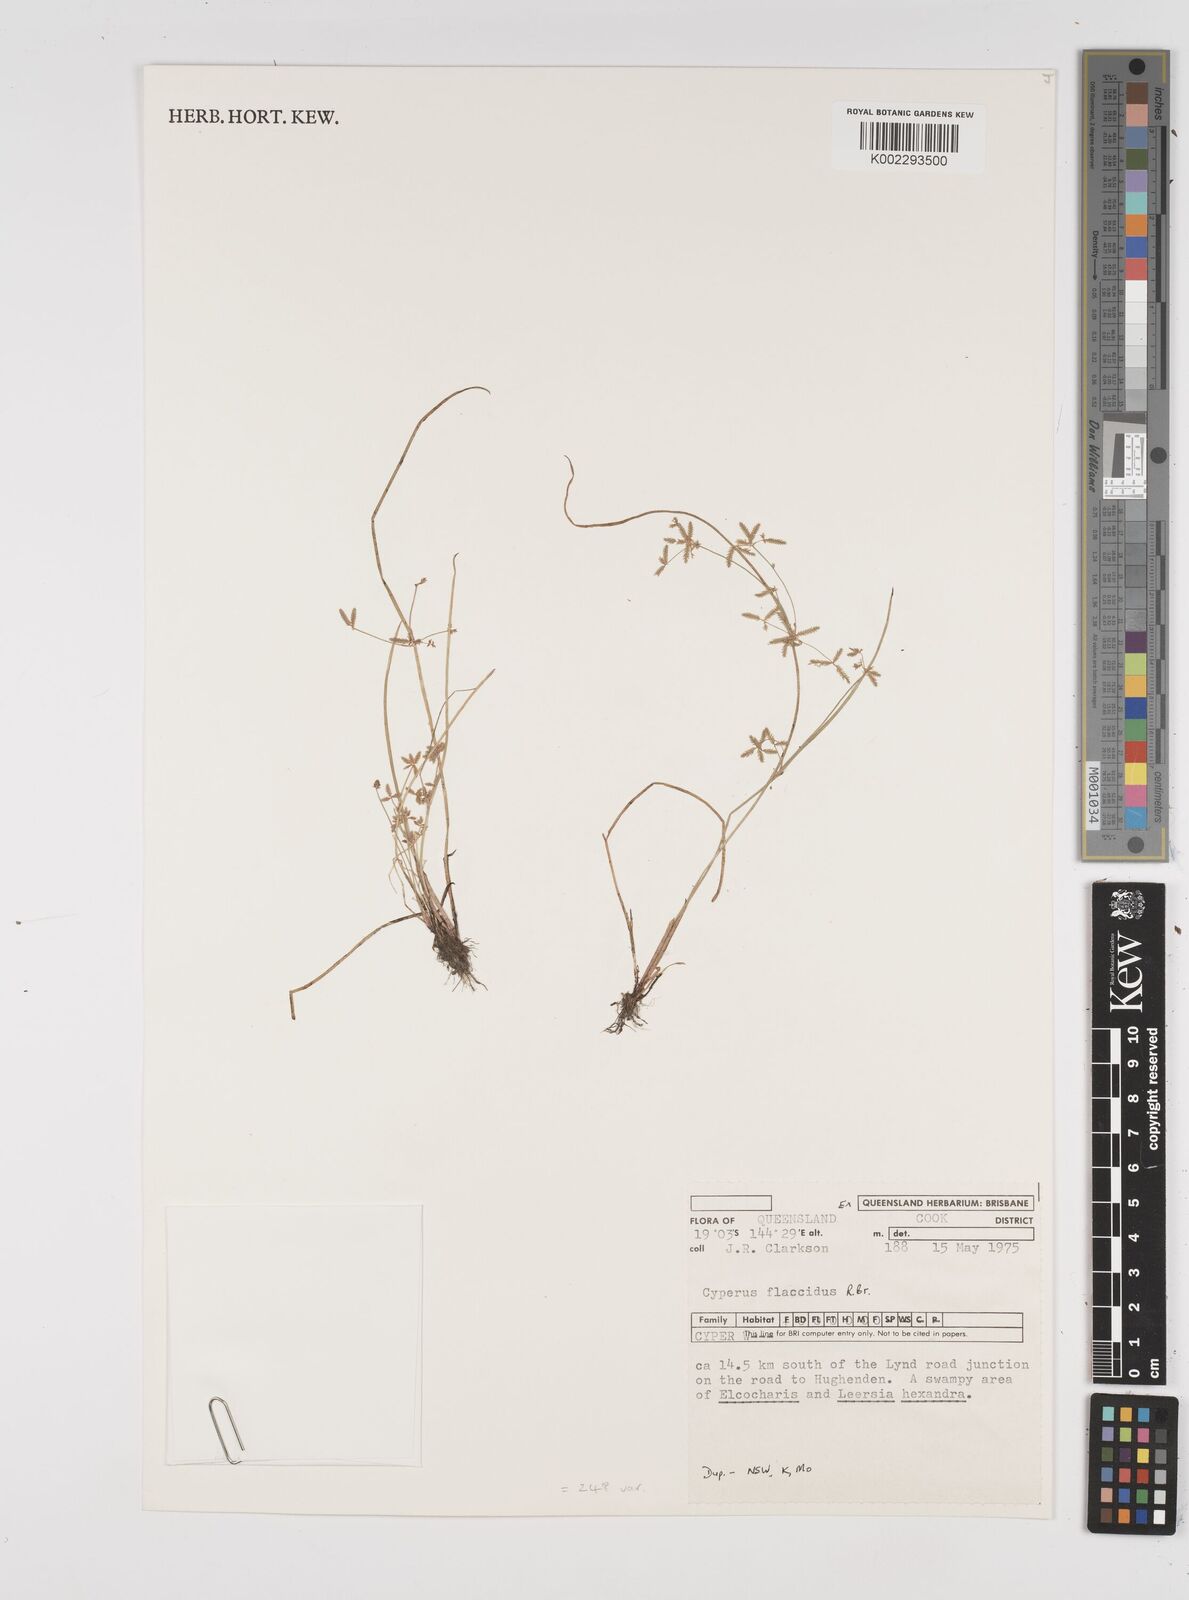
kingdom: Plantae
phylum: Tracheophyta
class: Liliopsida
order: Poales
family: Cyperaceae
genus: Cyperus
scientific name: Cyperus flaccidus
